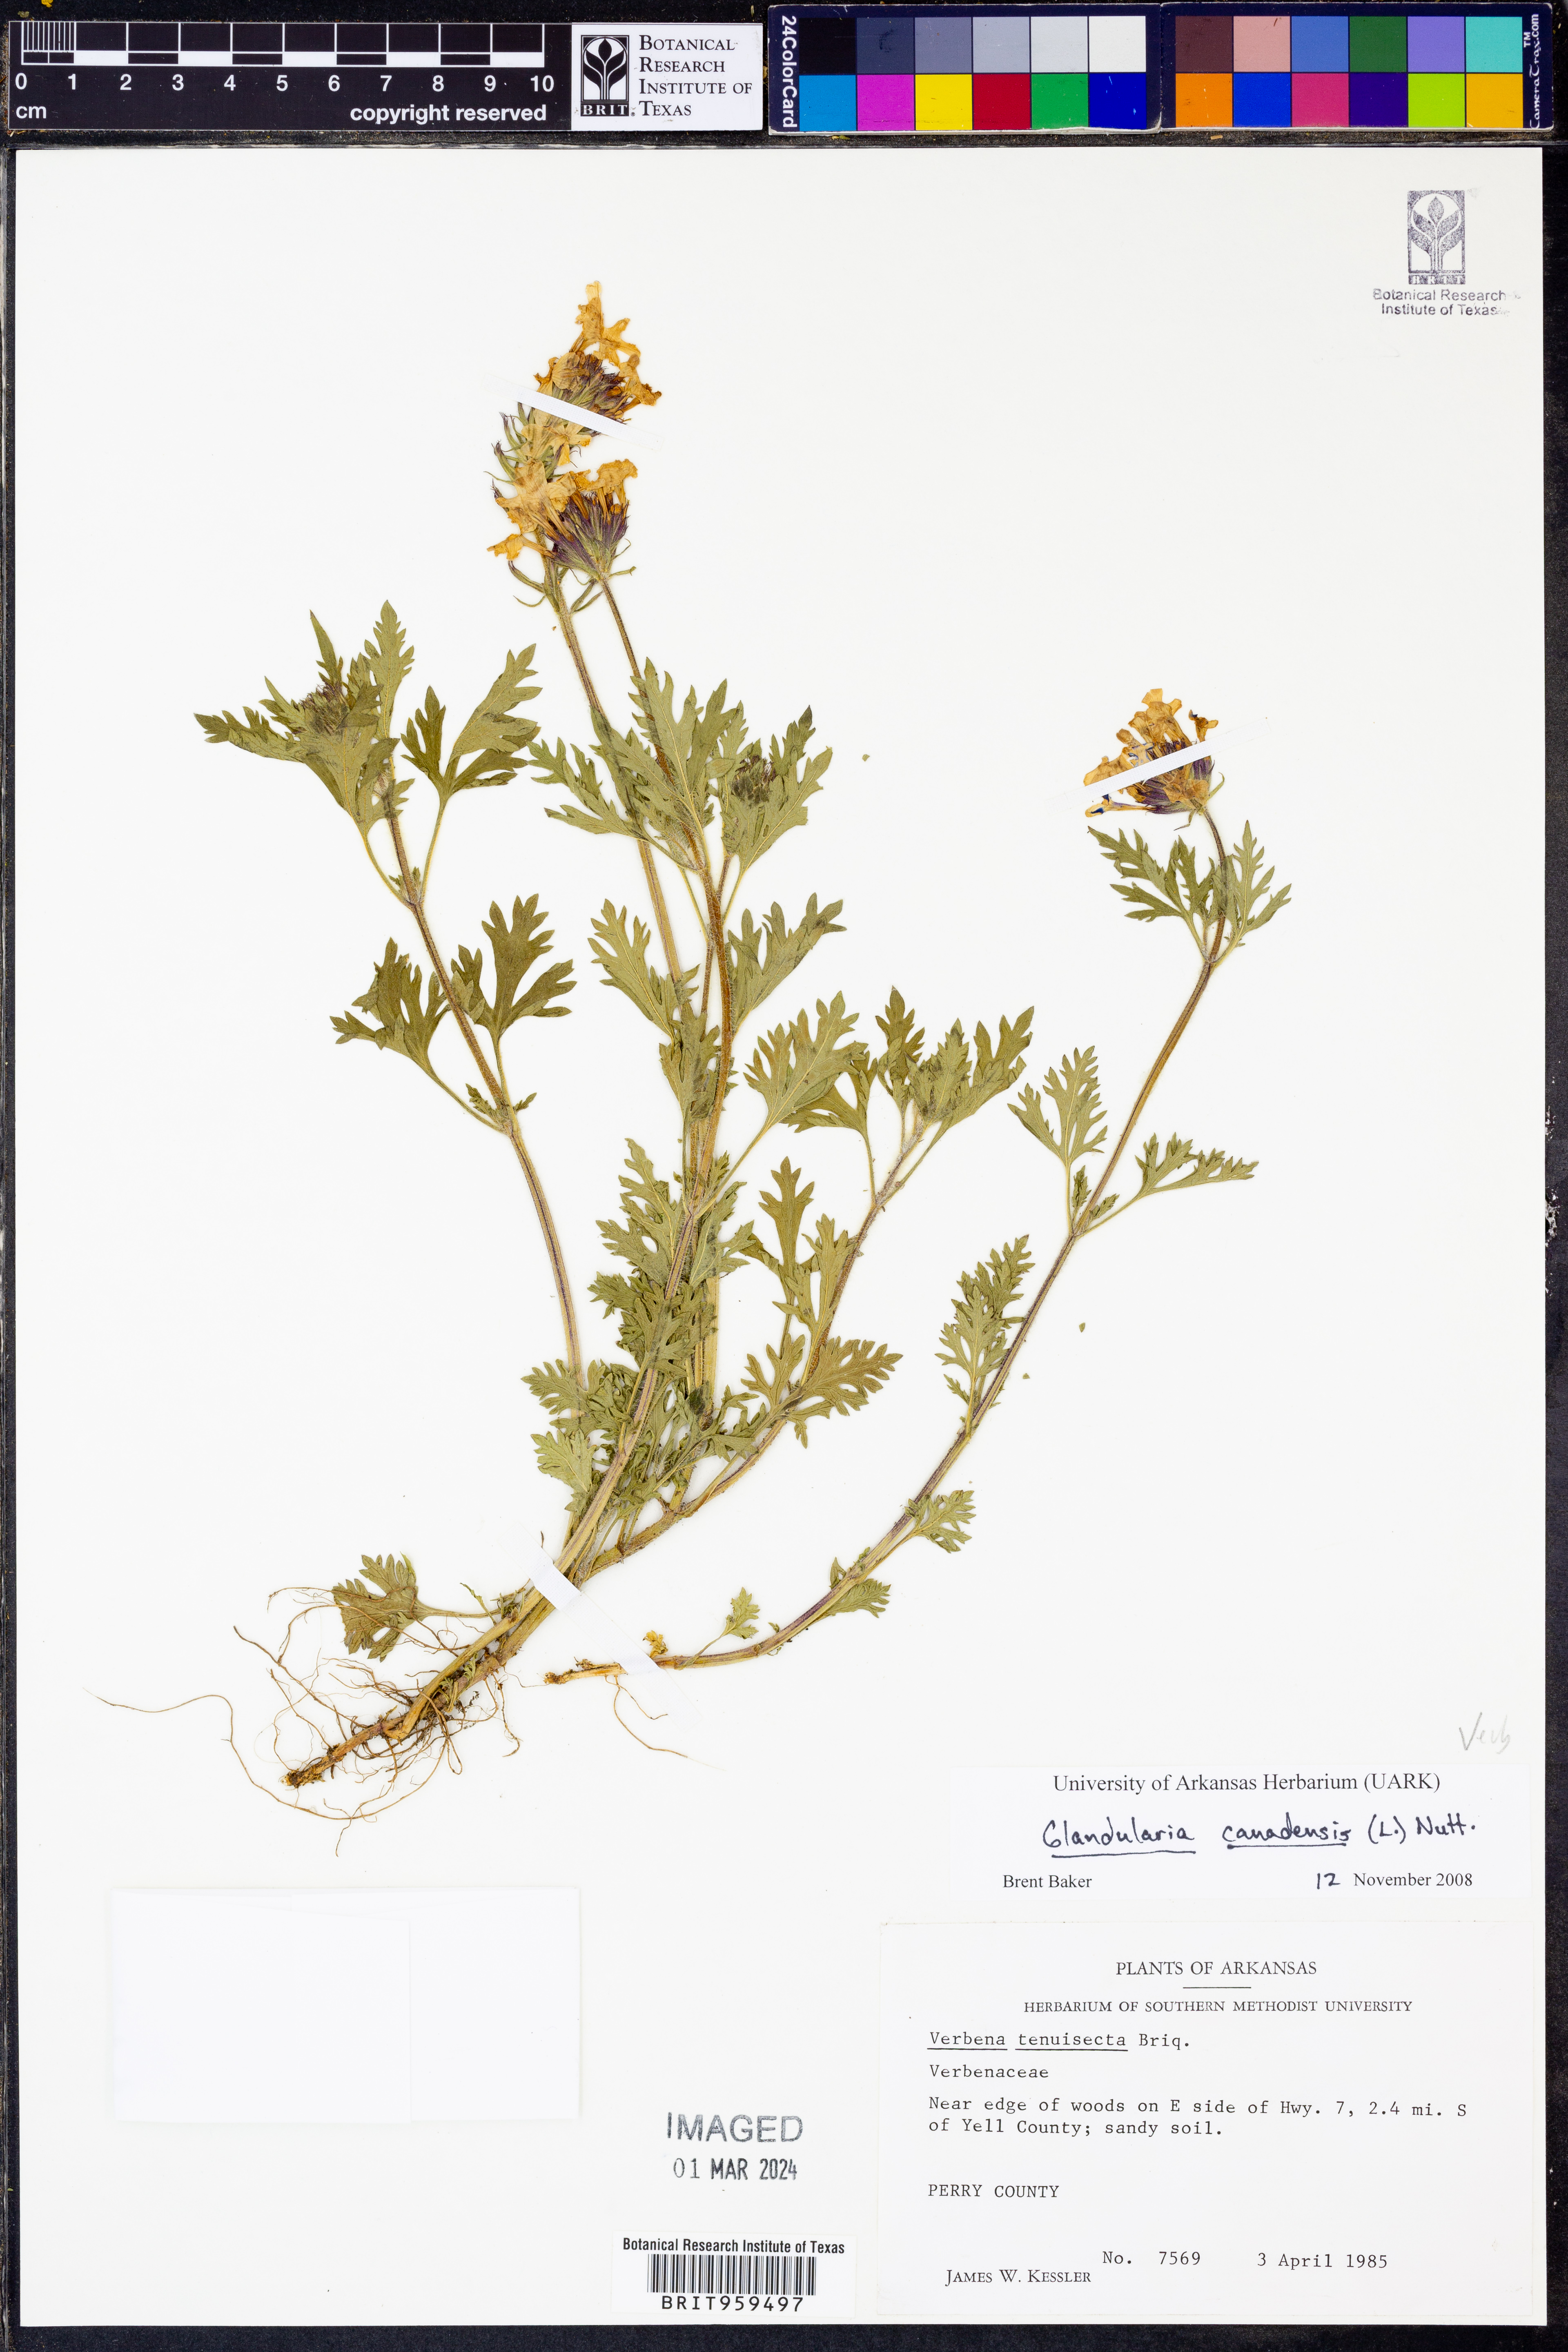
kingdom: Plantae
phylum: Tracheophyta
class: Magnoliopsida
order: Lamiales
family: Verbenaceae
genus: Verbena
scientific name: Verbena canadensis
